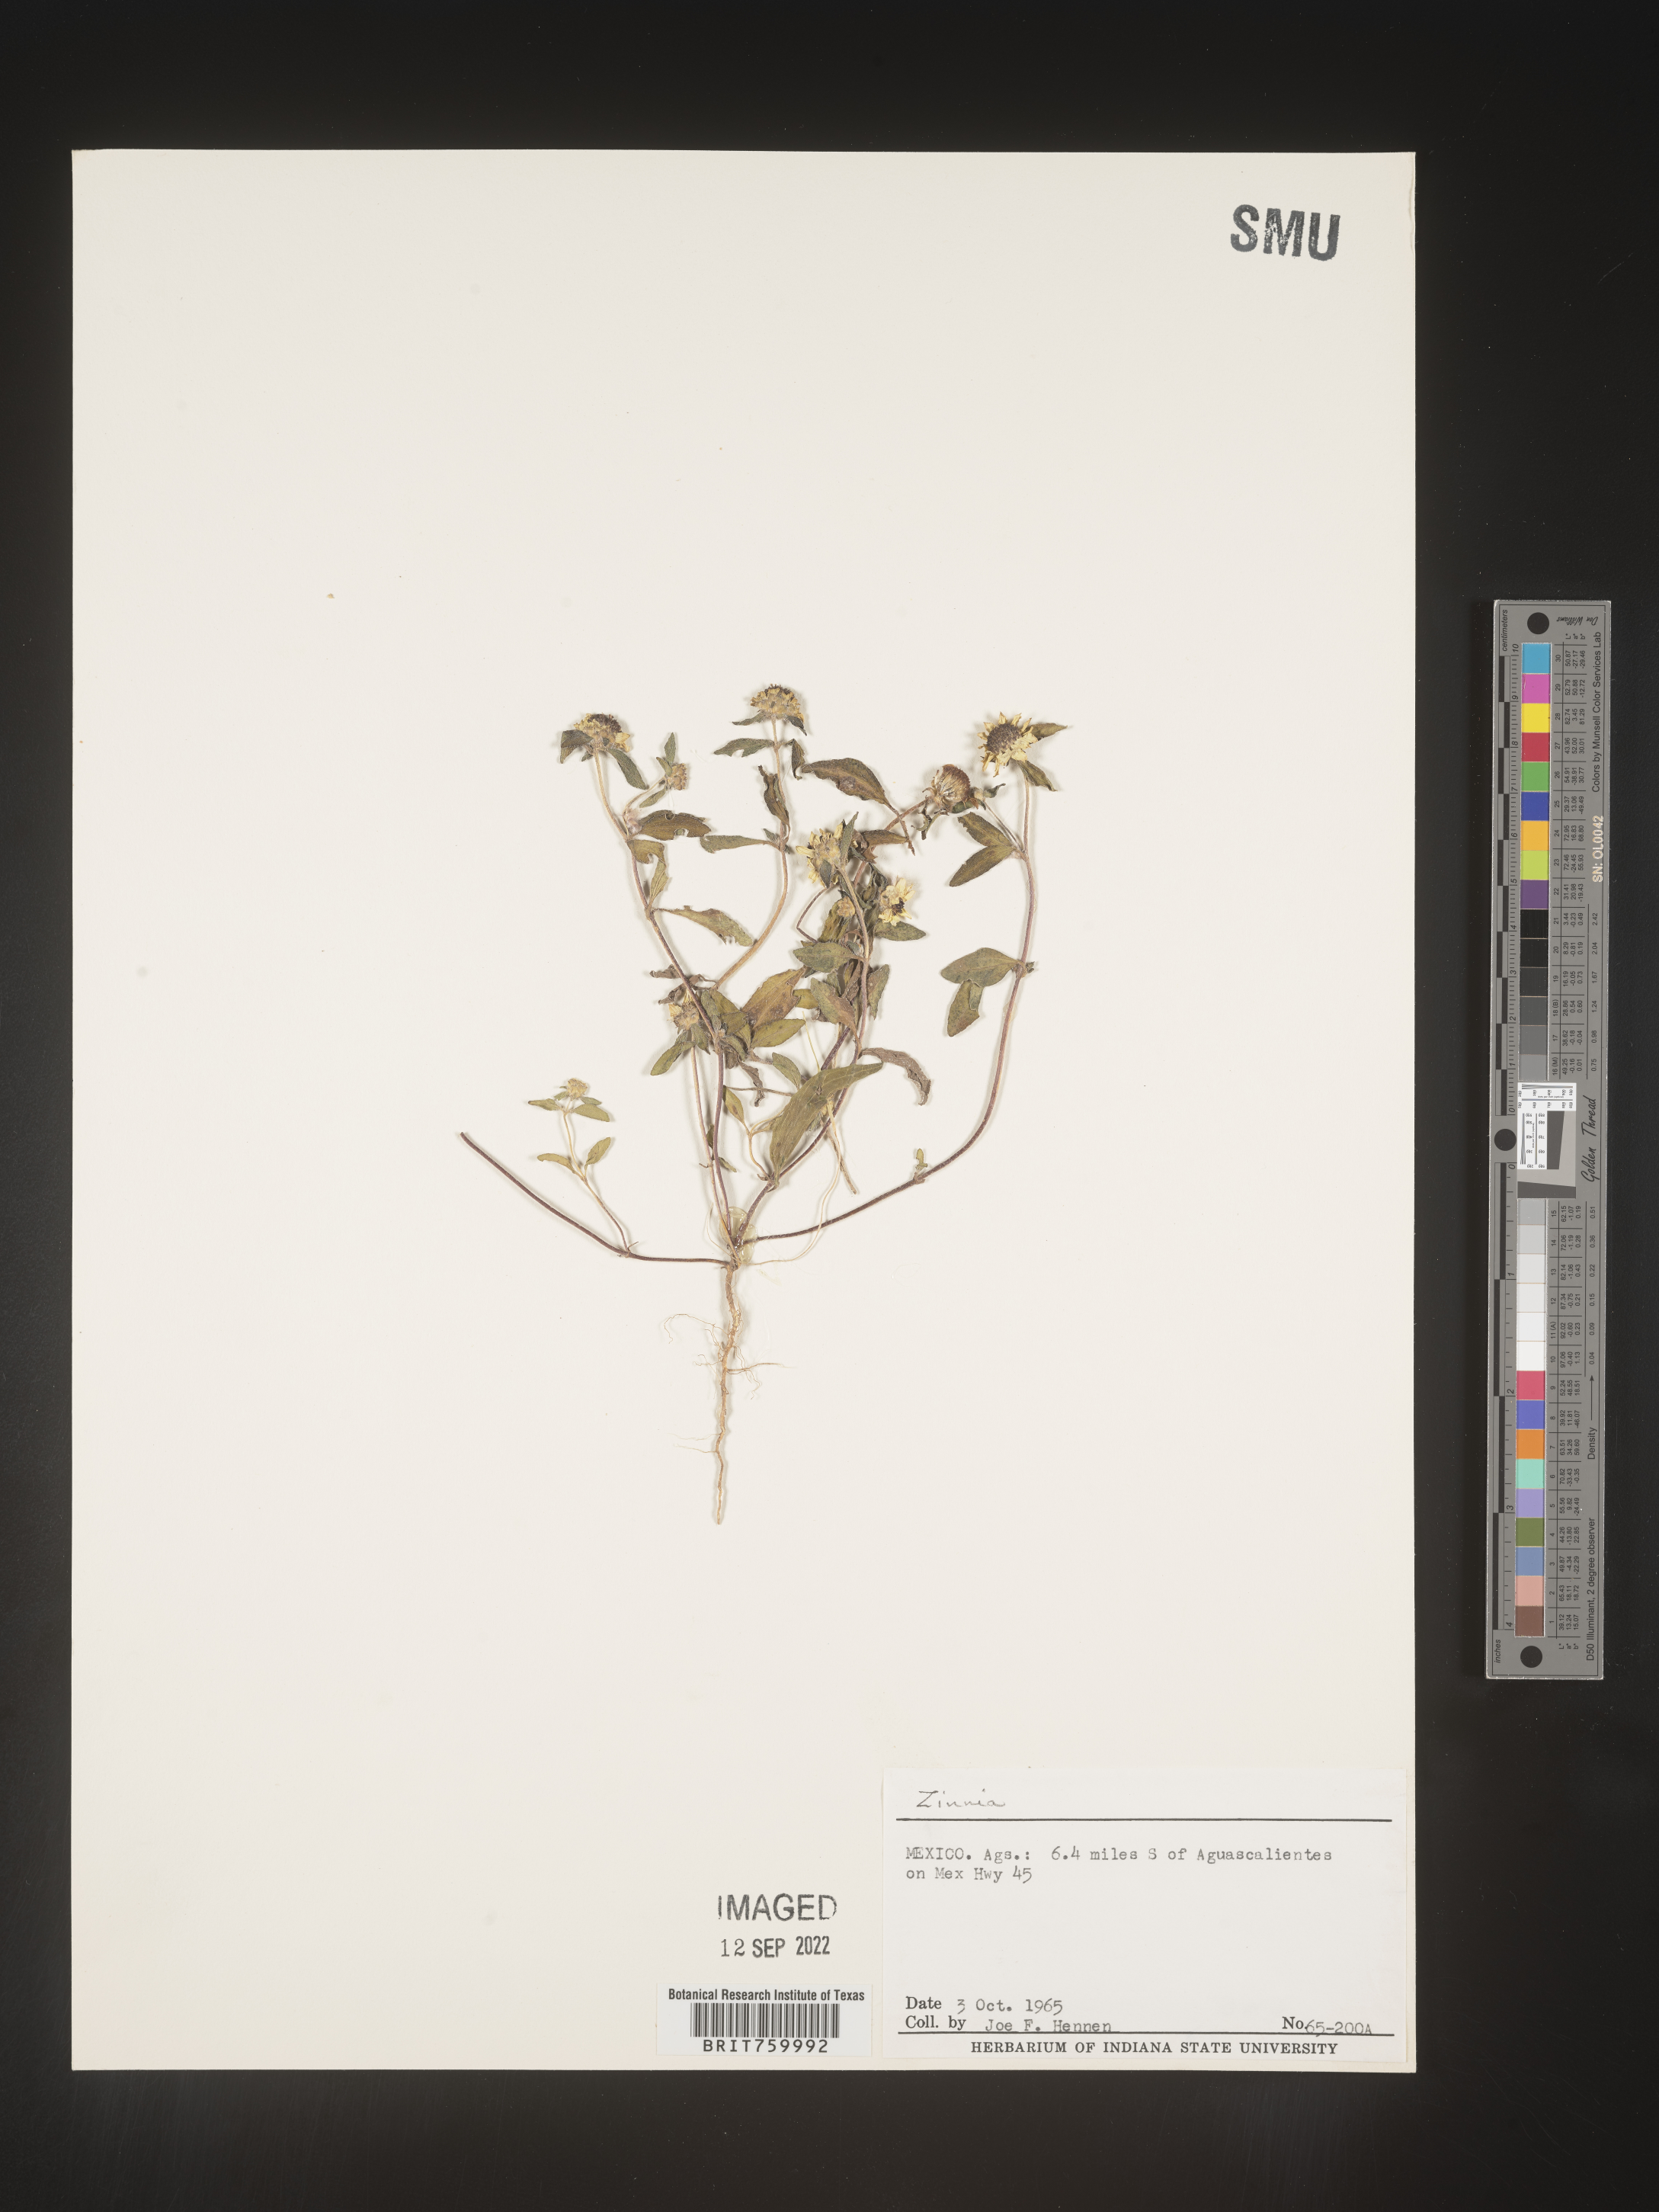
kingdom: Plantae
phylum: Tracheophyta
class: Magnoliopsida
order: Asterales
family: Asteraceae
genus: Zinnia
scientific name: Zinnia
